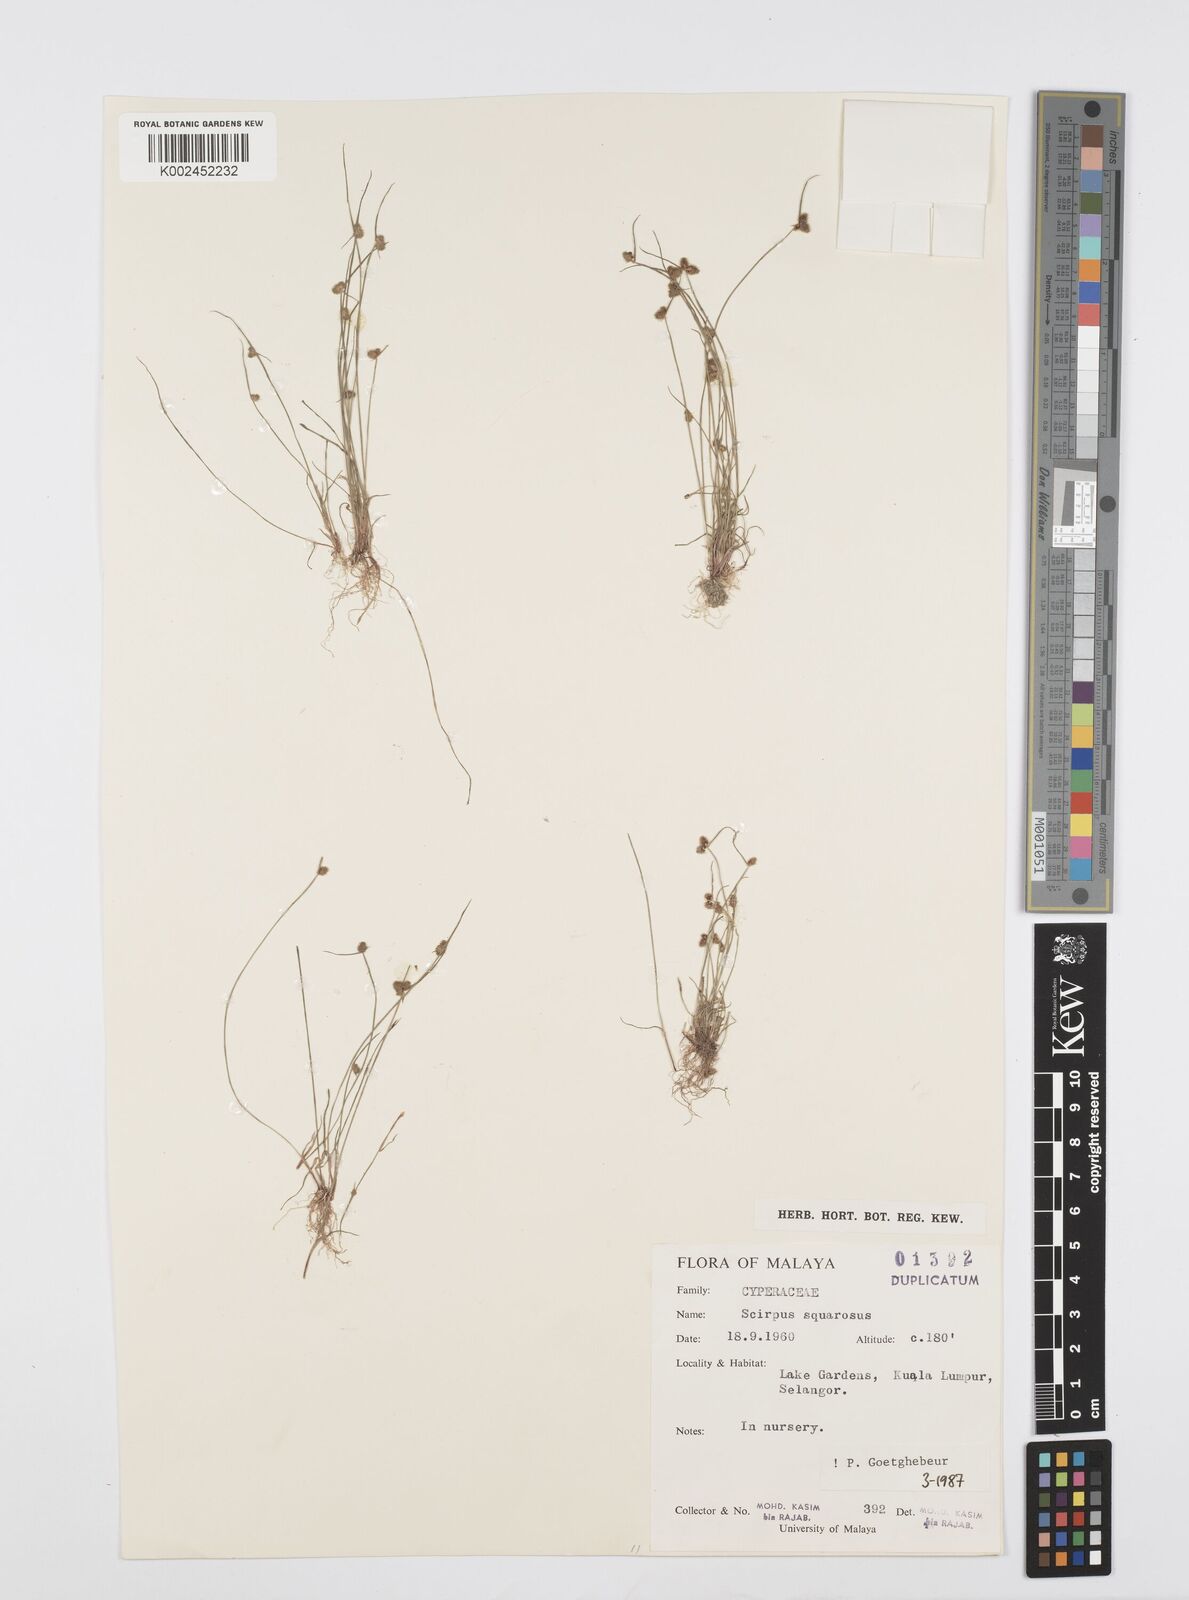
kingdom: Plantae
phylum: Tracheophyta
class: Liliopsida
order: Poales
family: Cyperaceae
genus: Cyperus
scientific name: Cyperus squarrosus
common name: Awned cyperus
